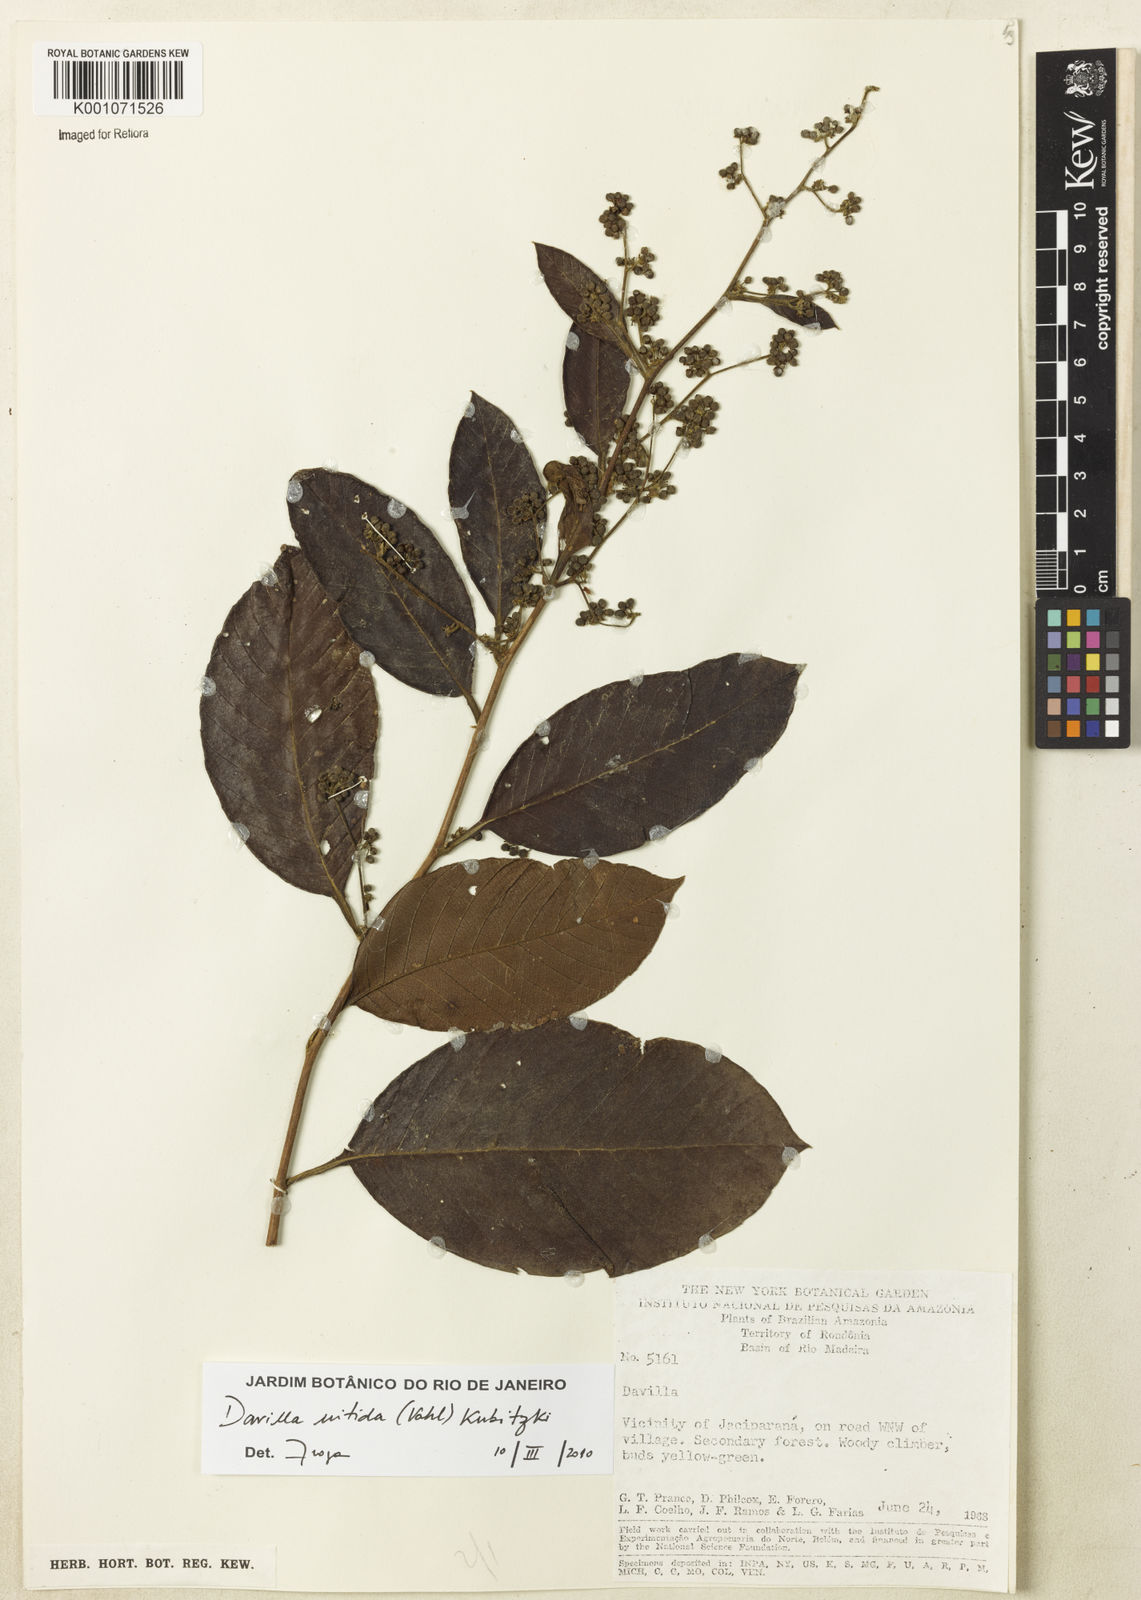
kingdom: Plantae
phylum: Tracheophyta
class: Magnoliopsida
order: Dilleniales
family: Dilleniaceae
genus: Davilla
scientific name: Davilla nitida
